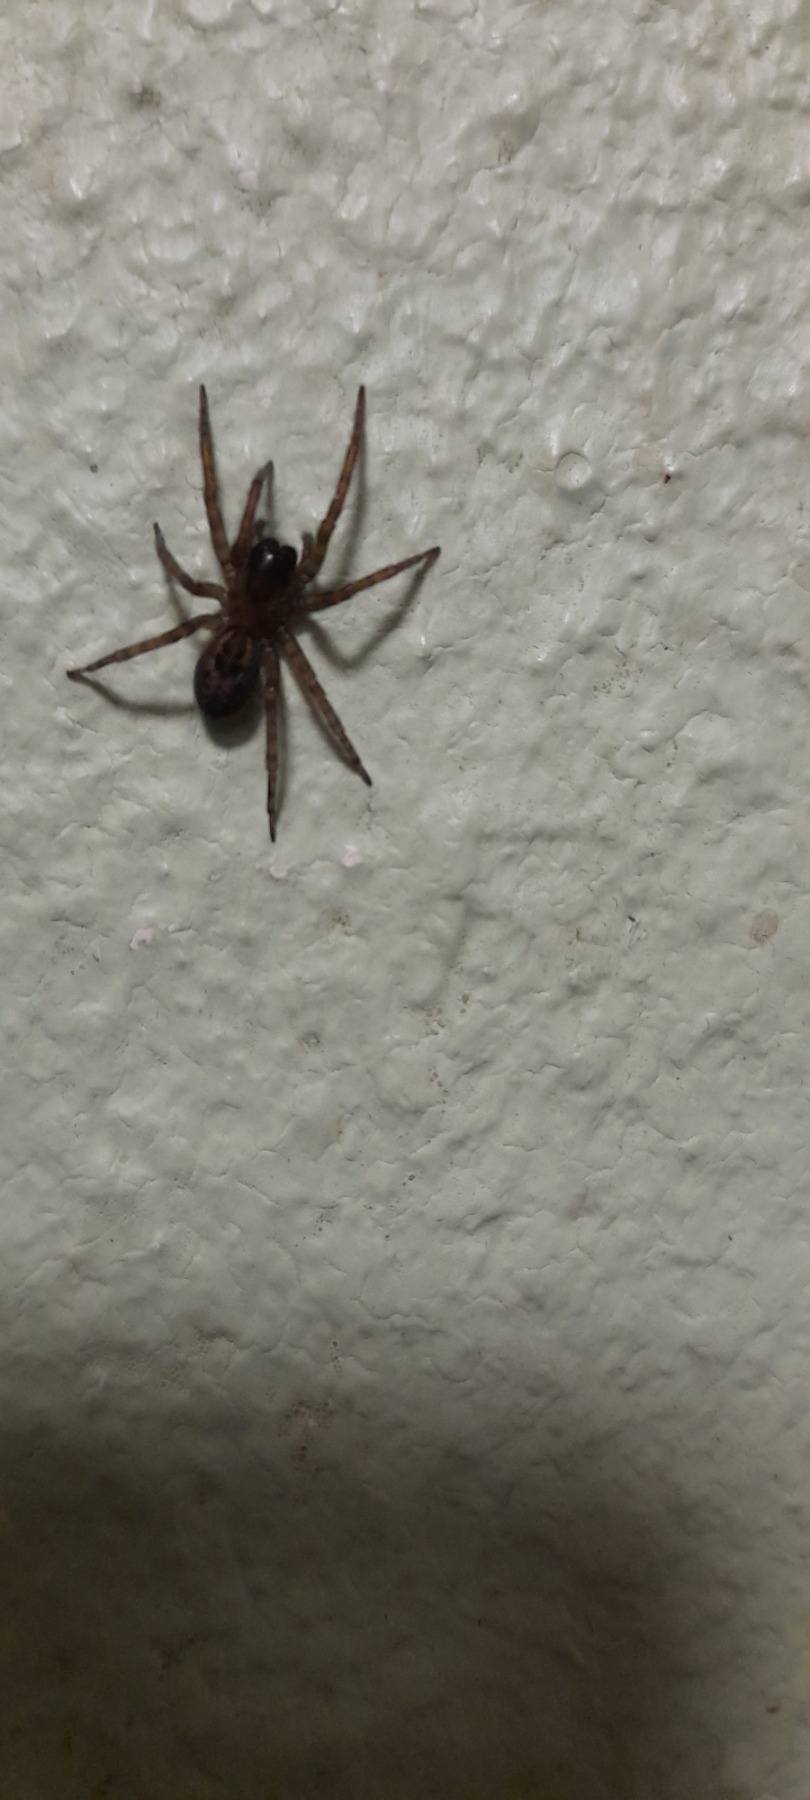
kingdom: Animalia
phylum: Arthropoda
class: Arachnida
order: Araneae
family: Amaurobiidae
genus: Amaurobius
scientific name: Amaurobius similis
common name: Huskartespinder
